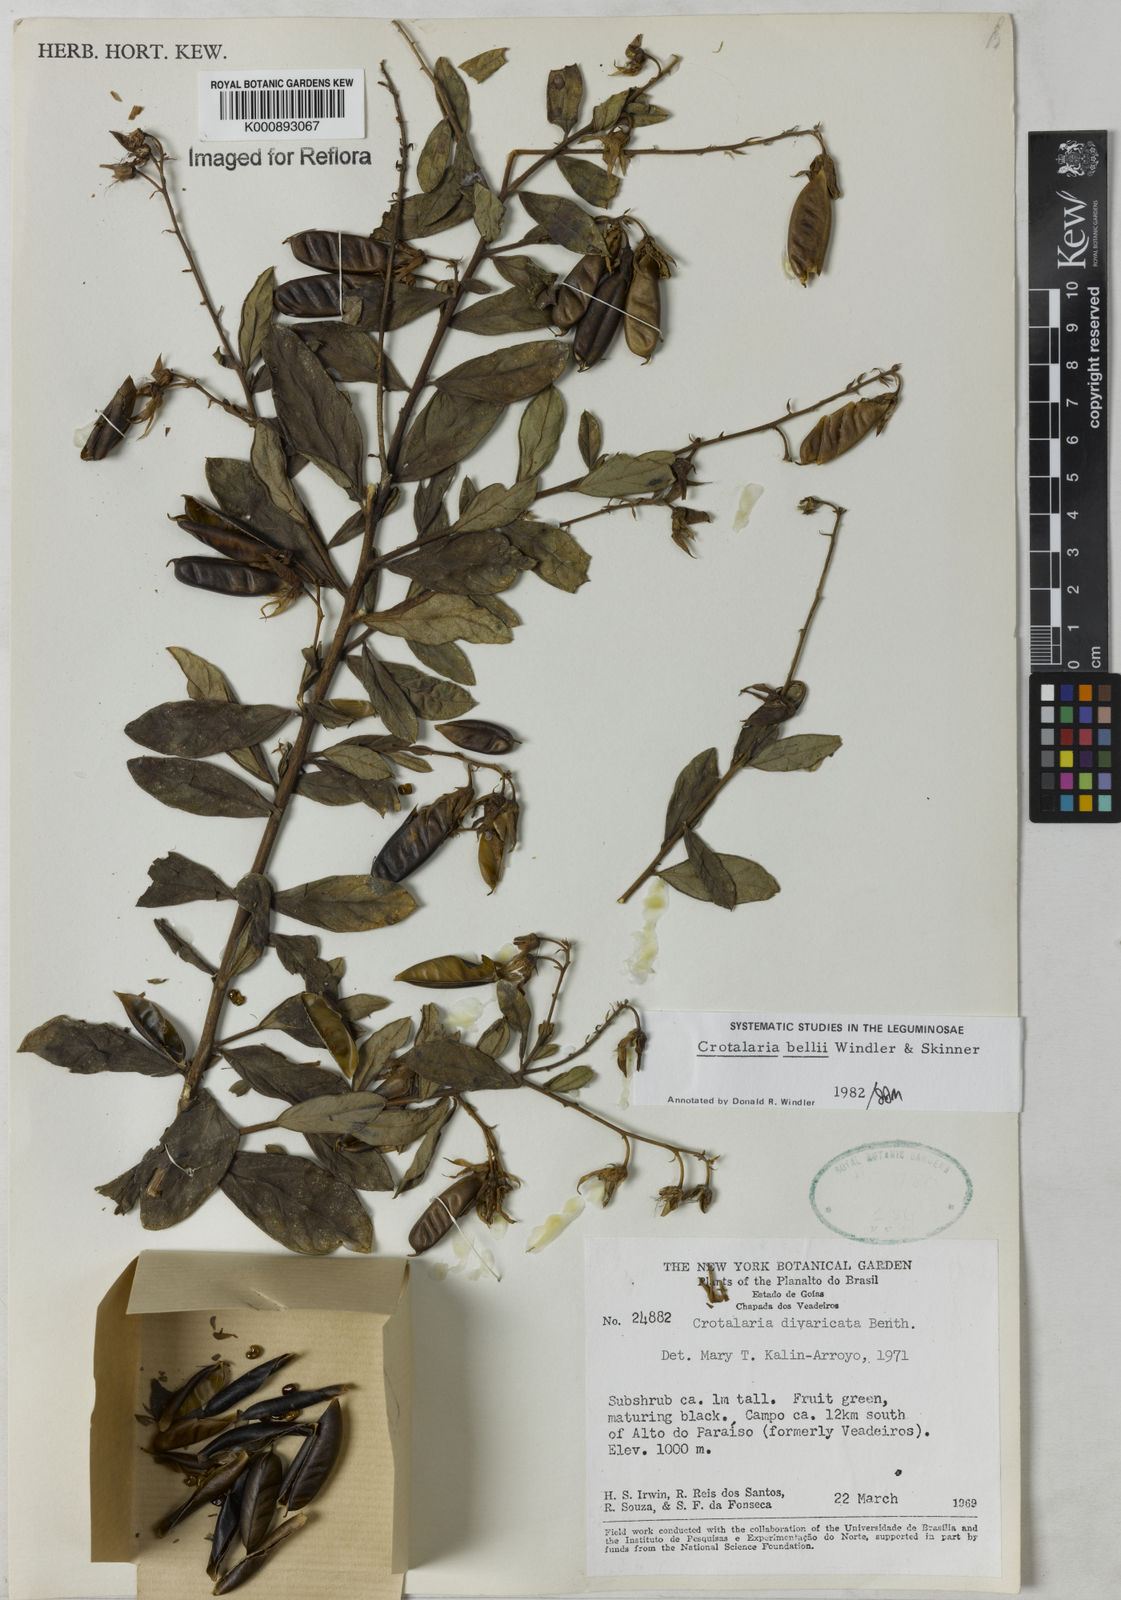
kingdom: Plantae
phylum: Tracheophyta
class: Magnoliopsida
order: Fabales
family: Fabaceae
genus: Crotalaria
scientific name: Crotalaria grandiflora
